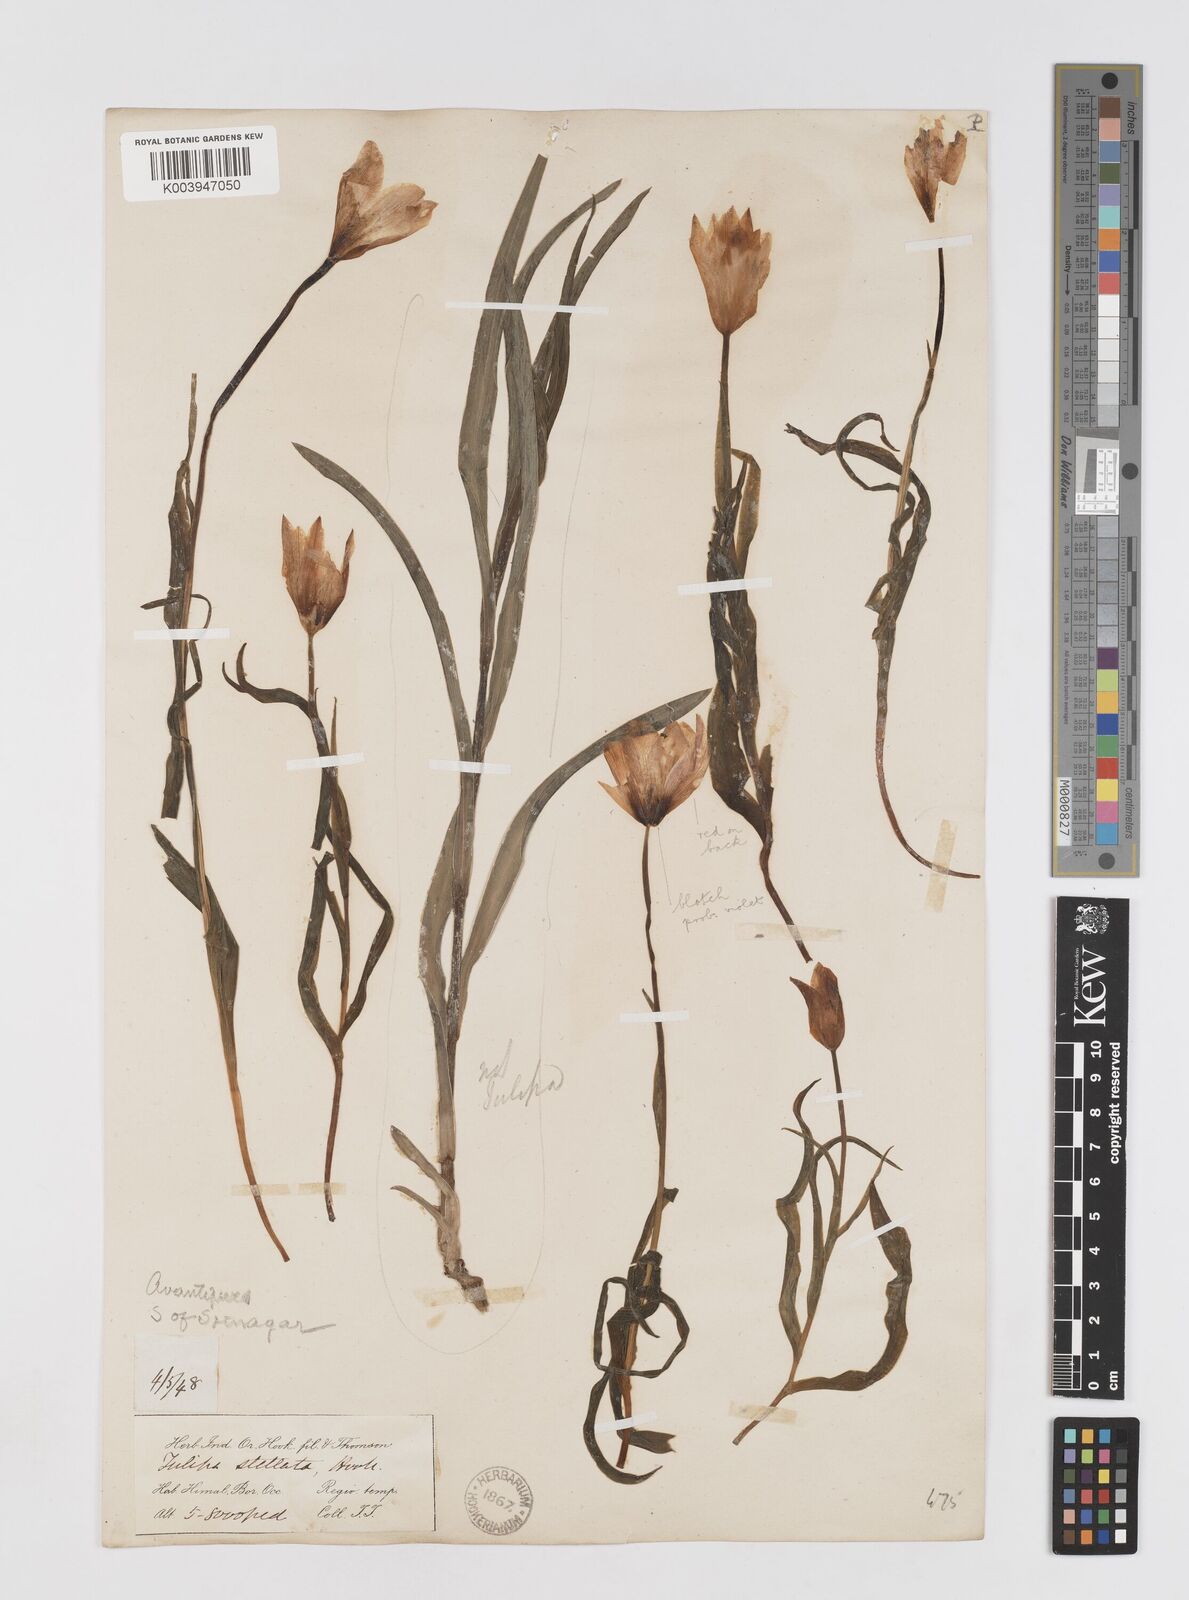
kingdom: Plantae
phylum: Tracheophyta
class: Liliopsida
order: Liliales
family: Liliaceae
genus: Tulipa
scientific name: Tulipa clusiana
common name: Lady tulip
